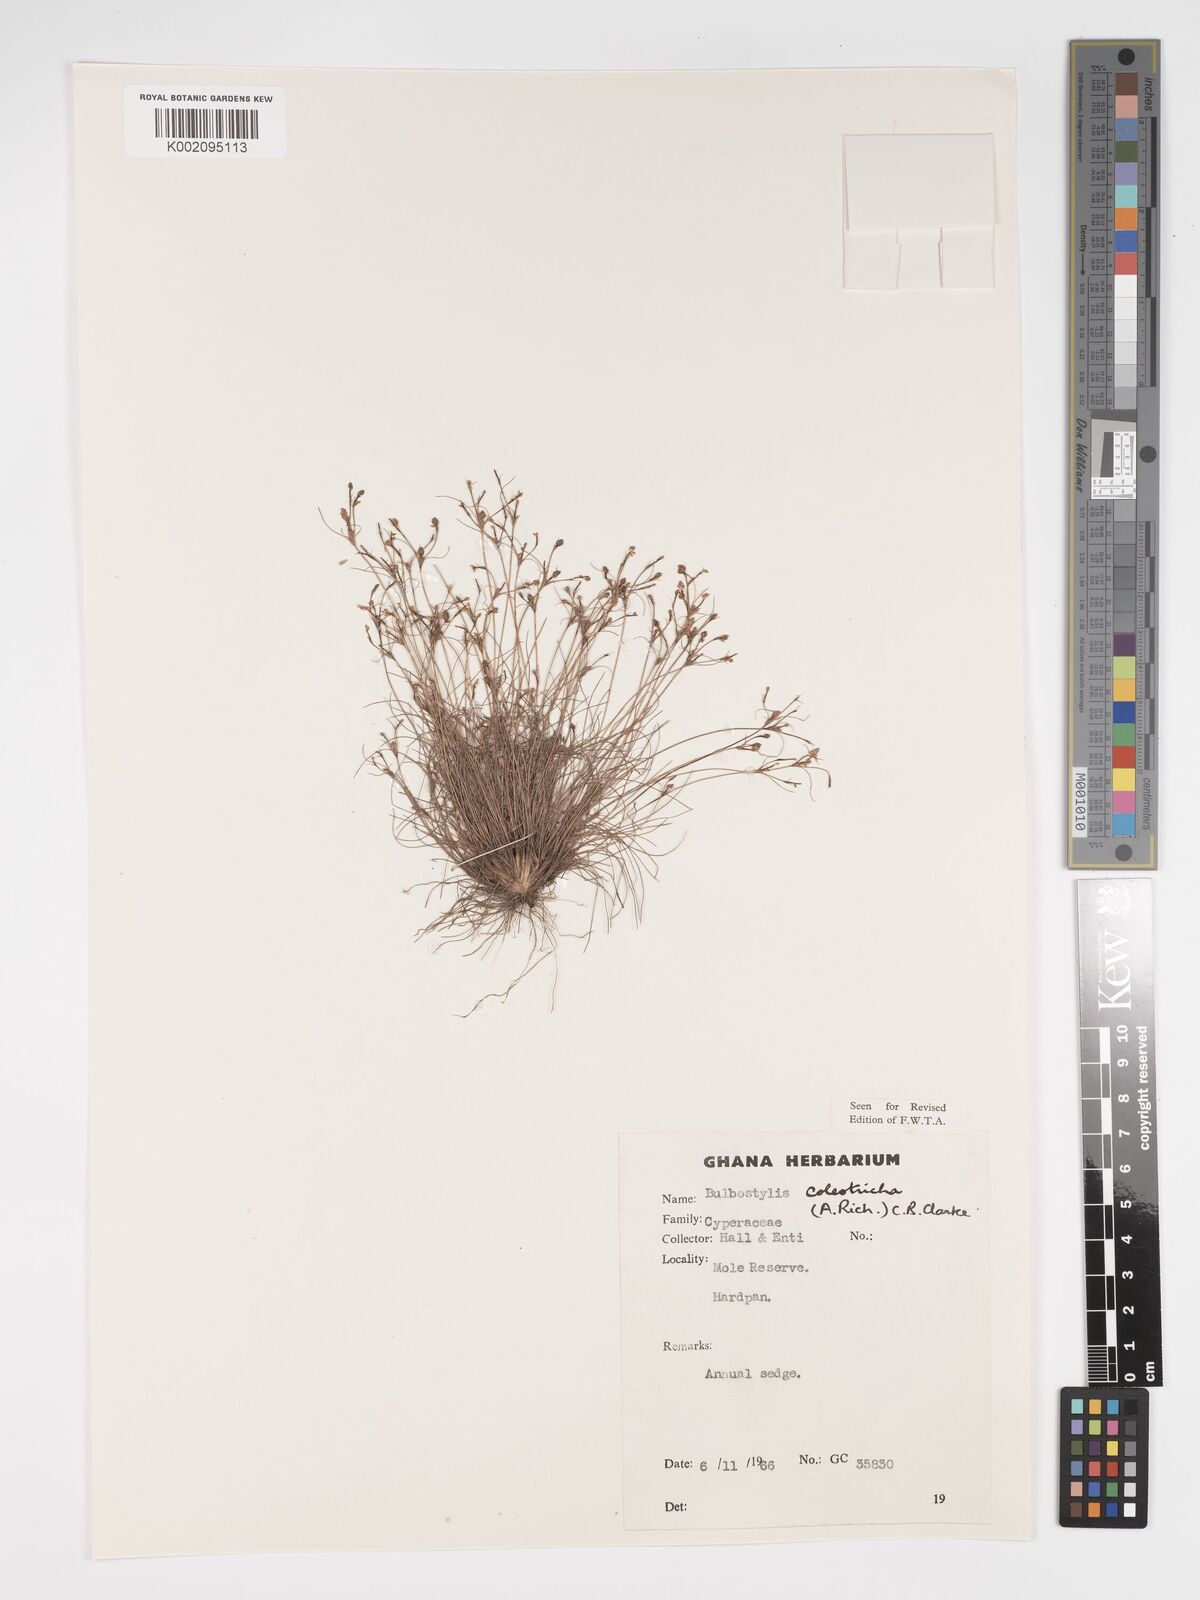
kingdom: Plantae
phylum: Tracheophyta
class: Liliopsida
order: Poales
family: Cyperaceae
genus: Bulbostylis
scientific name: Bulbostylis coleotricha
